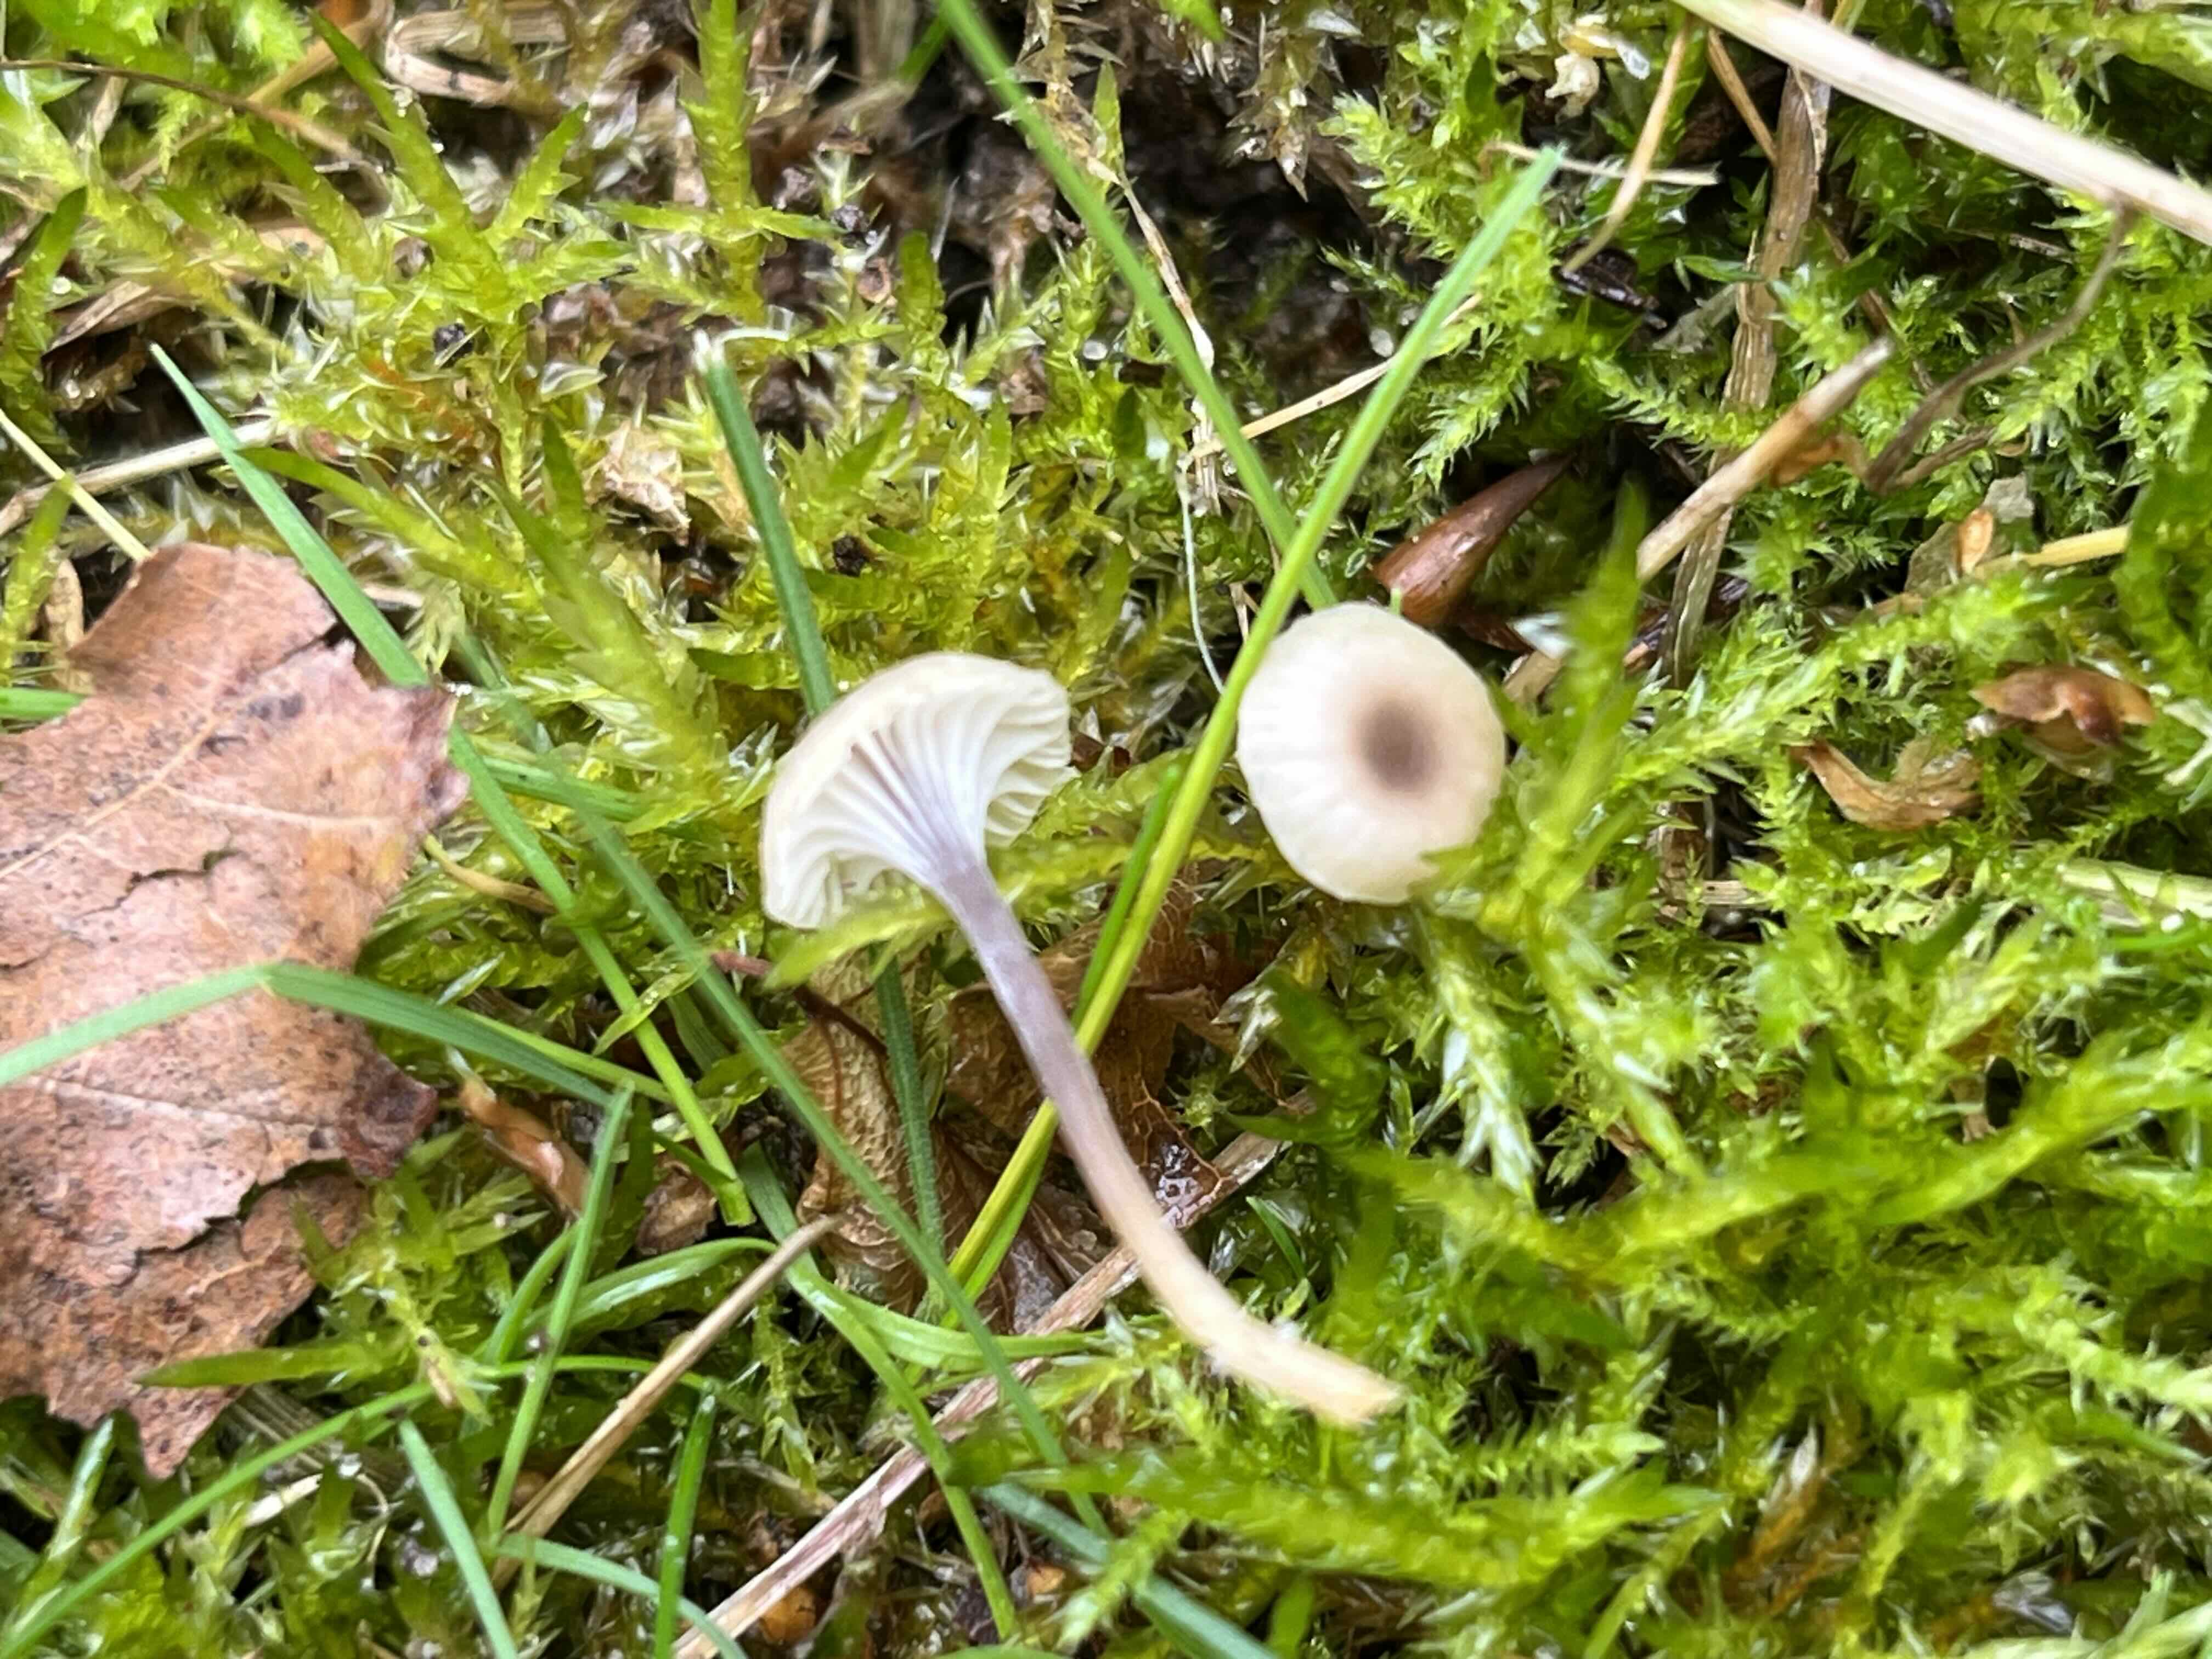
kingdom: Fungi
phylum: Basidiomycota
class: Agaricomycetes
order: Hymenochaetales
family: Rickenellaceae
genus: Rickenella
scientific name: Rickenella swartzii
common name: finstokket mosnavlehat
